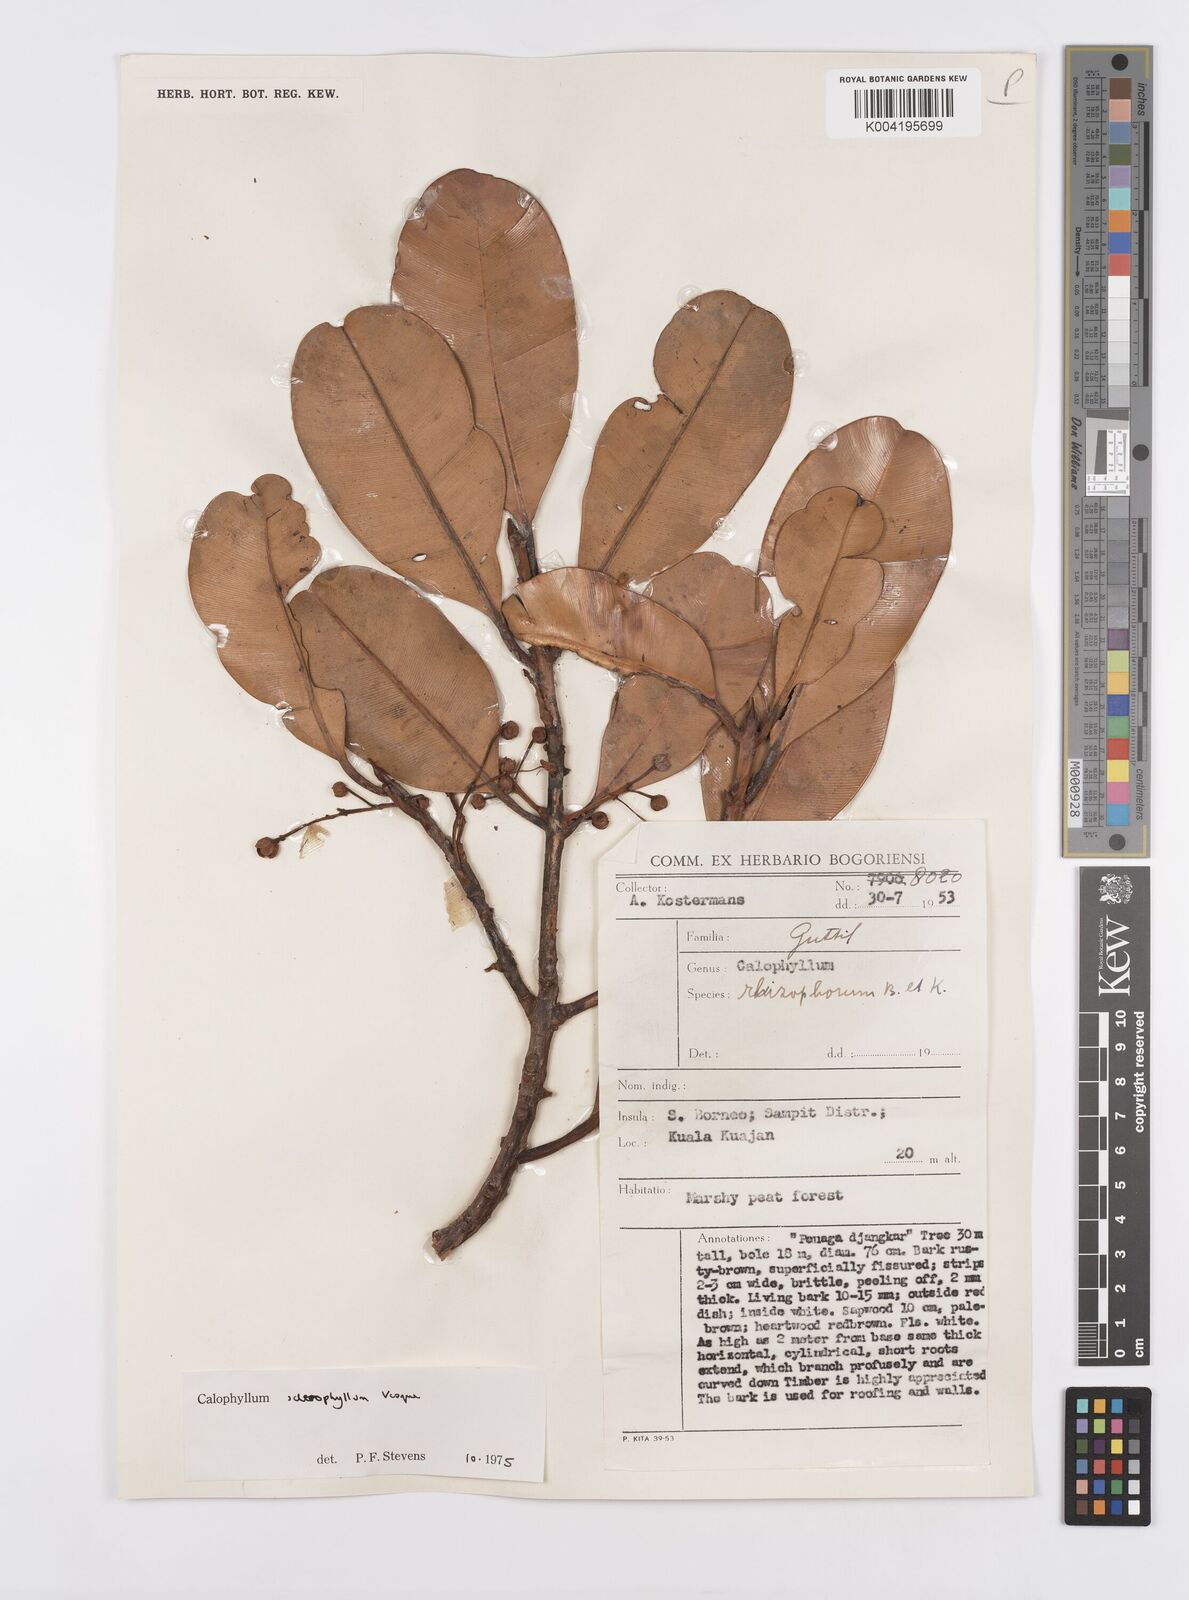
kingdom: Plantae
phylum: Tracheophyta
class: Magnoliopsida
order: Malpighiales
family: Calophyllaceae
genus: Calophyllum
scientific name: Calophyllum sclerophyllum
